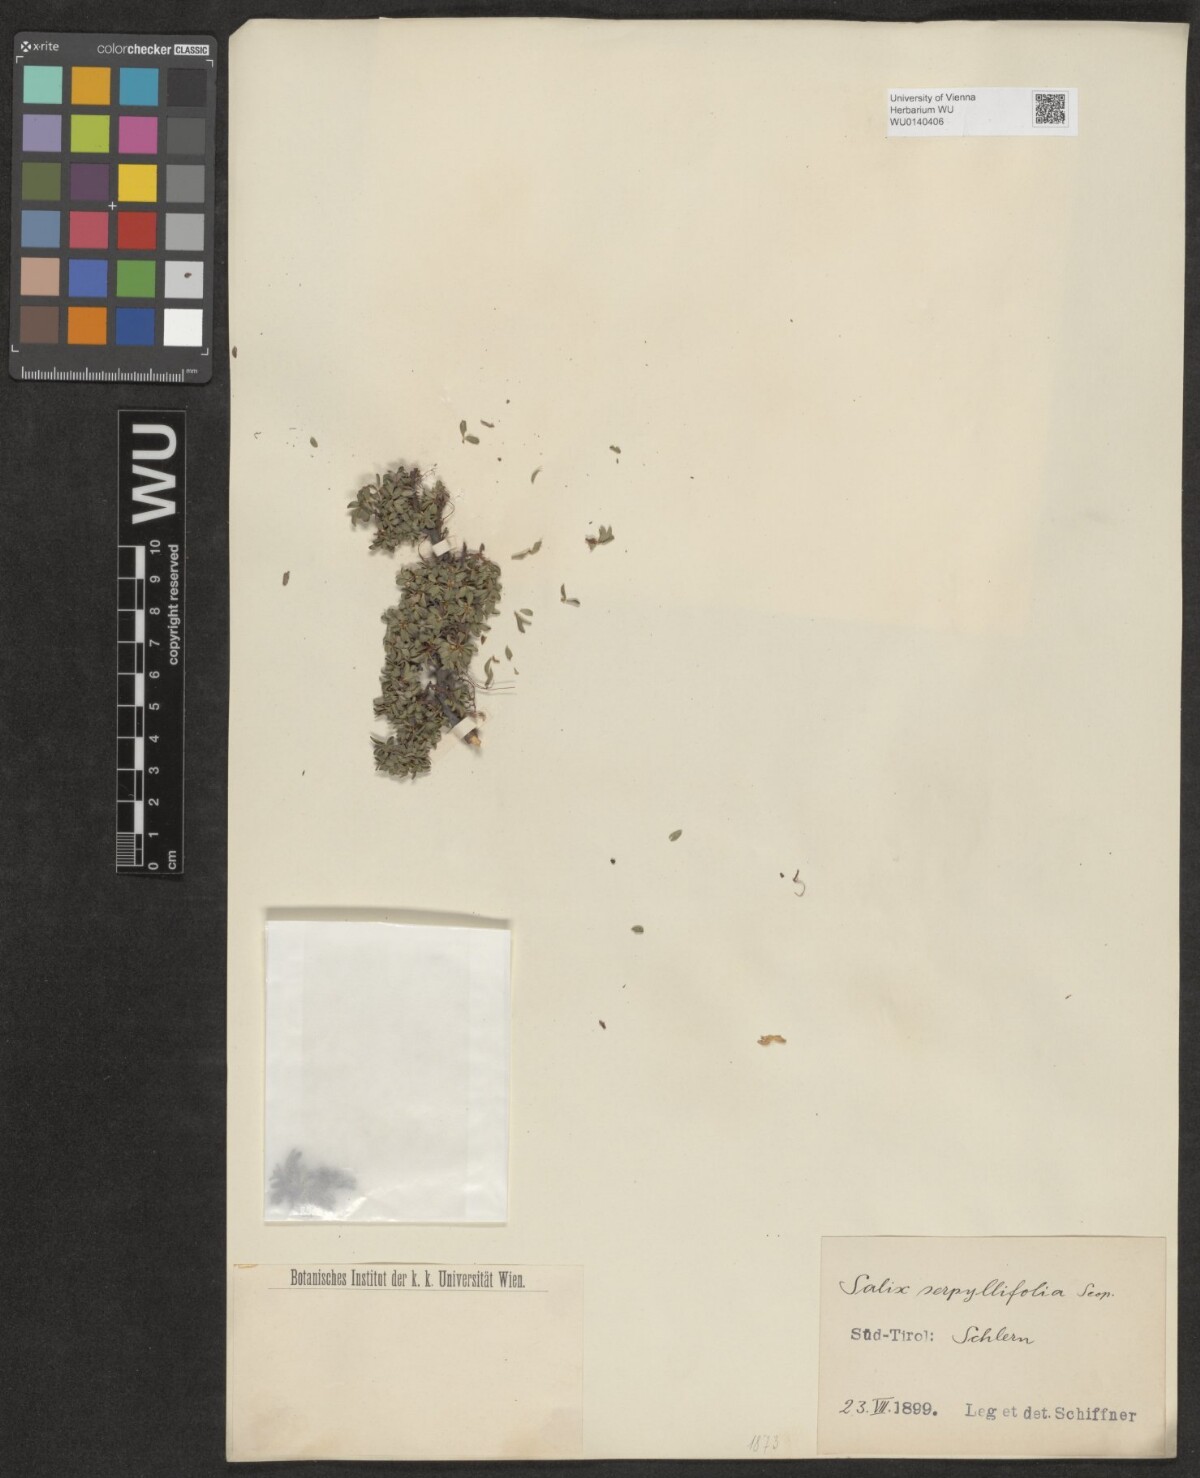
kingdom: Plantae
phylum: Tracheophyta
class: Magnoliopsida
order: Malpighiales
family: Salicaceae
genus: Salix
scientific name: Salix serpillifolia
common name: Thyme-leaf willow
